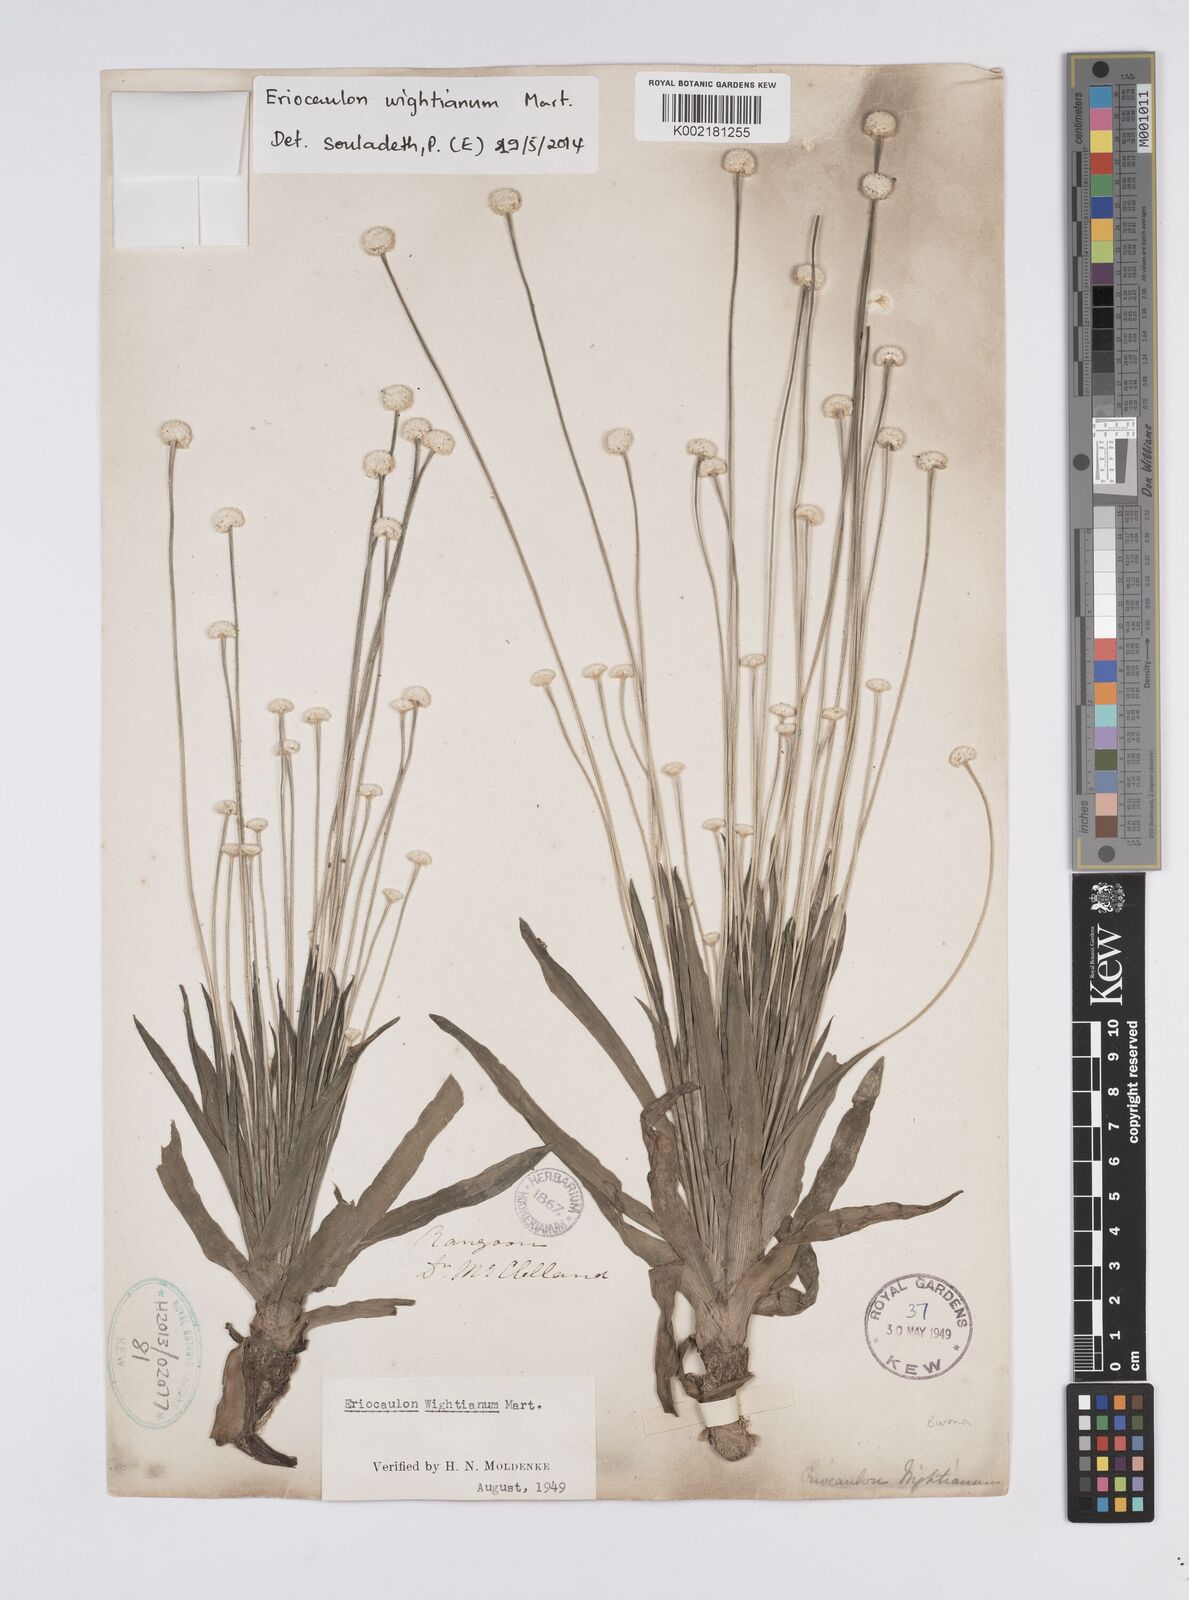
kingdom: Plantae
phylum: Tracheophyta
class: Liliopsida
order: Poales
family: Eriocaulaceae
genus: Eriocaulon
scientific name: Eriocaulon wightianum
